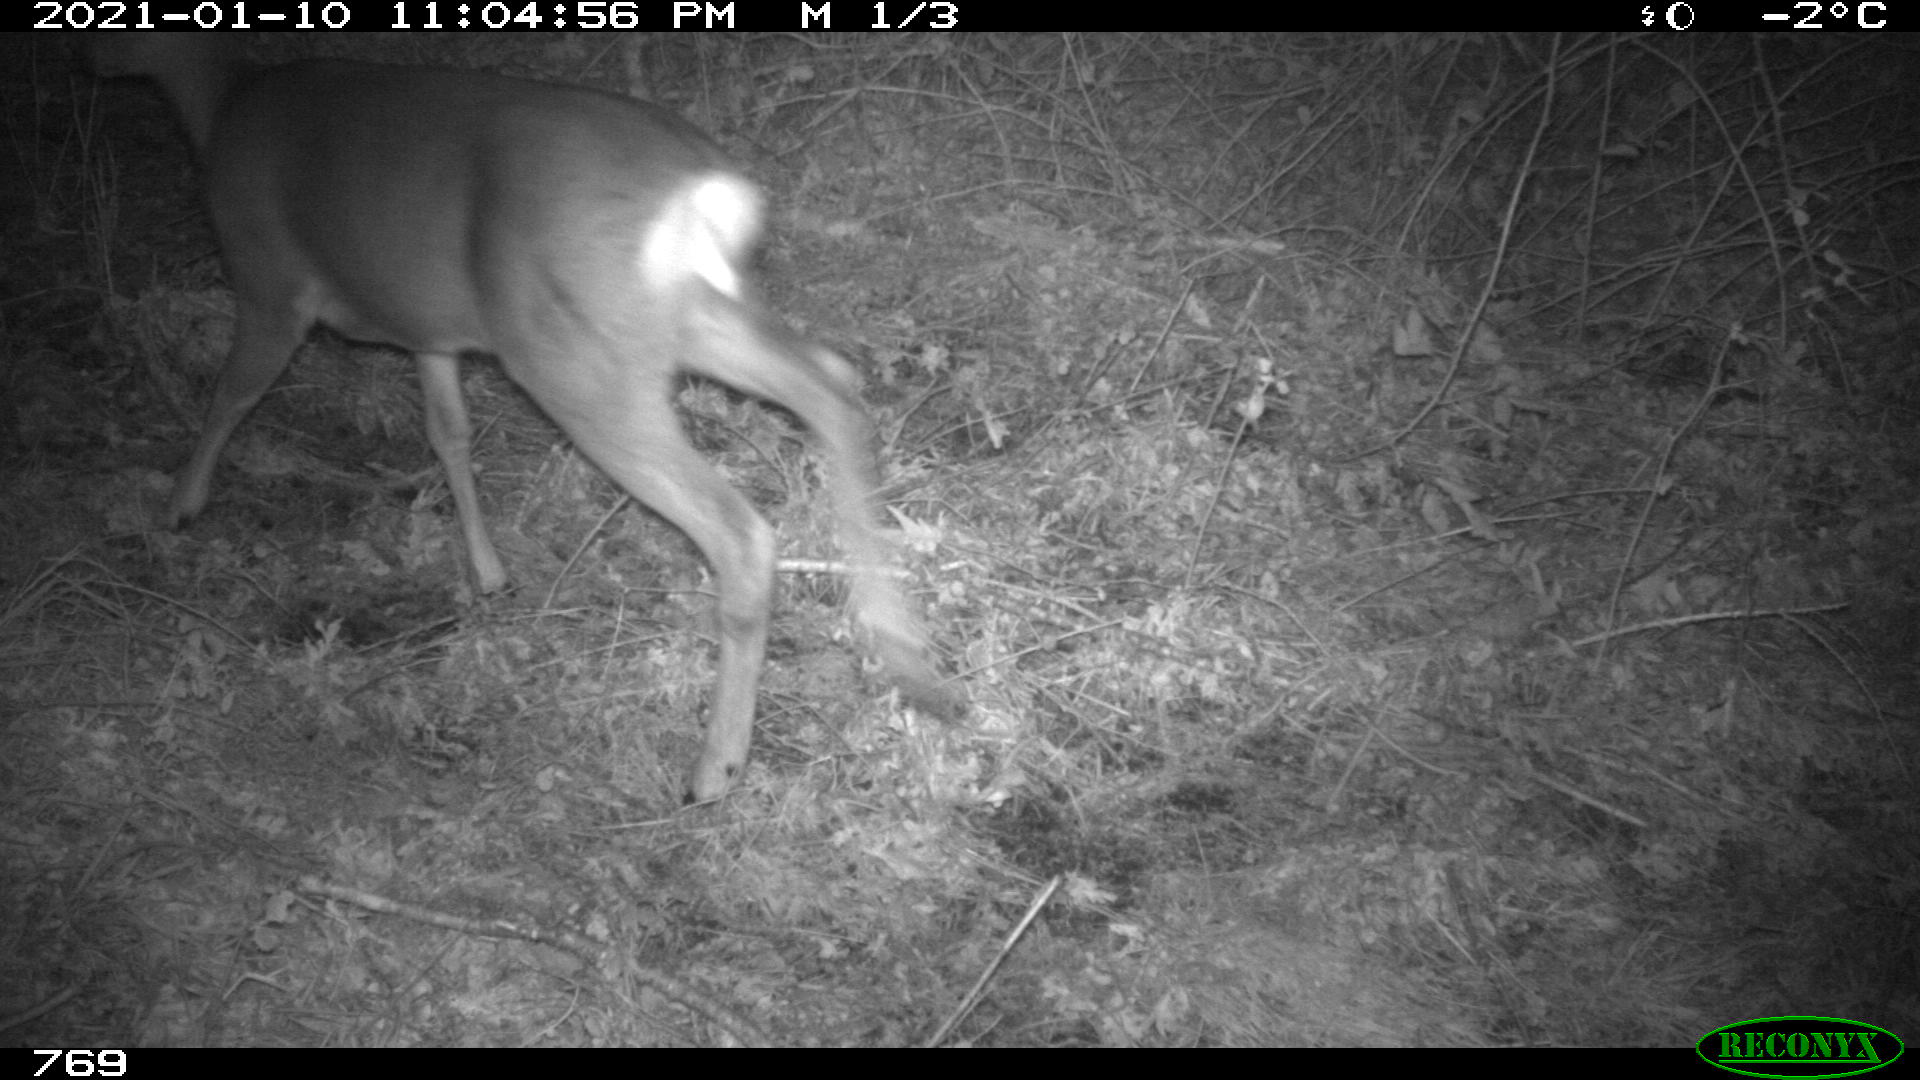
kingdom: Animalia
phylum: Chordata
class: Mammalia
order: Artiodactyla
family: Cervidae
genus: Capreolus
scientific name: Capreolus capreolus
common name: Western roe deer
